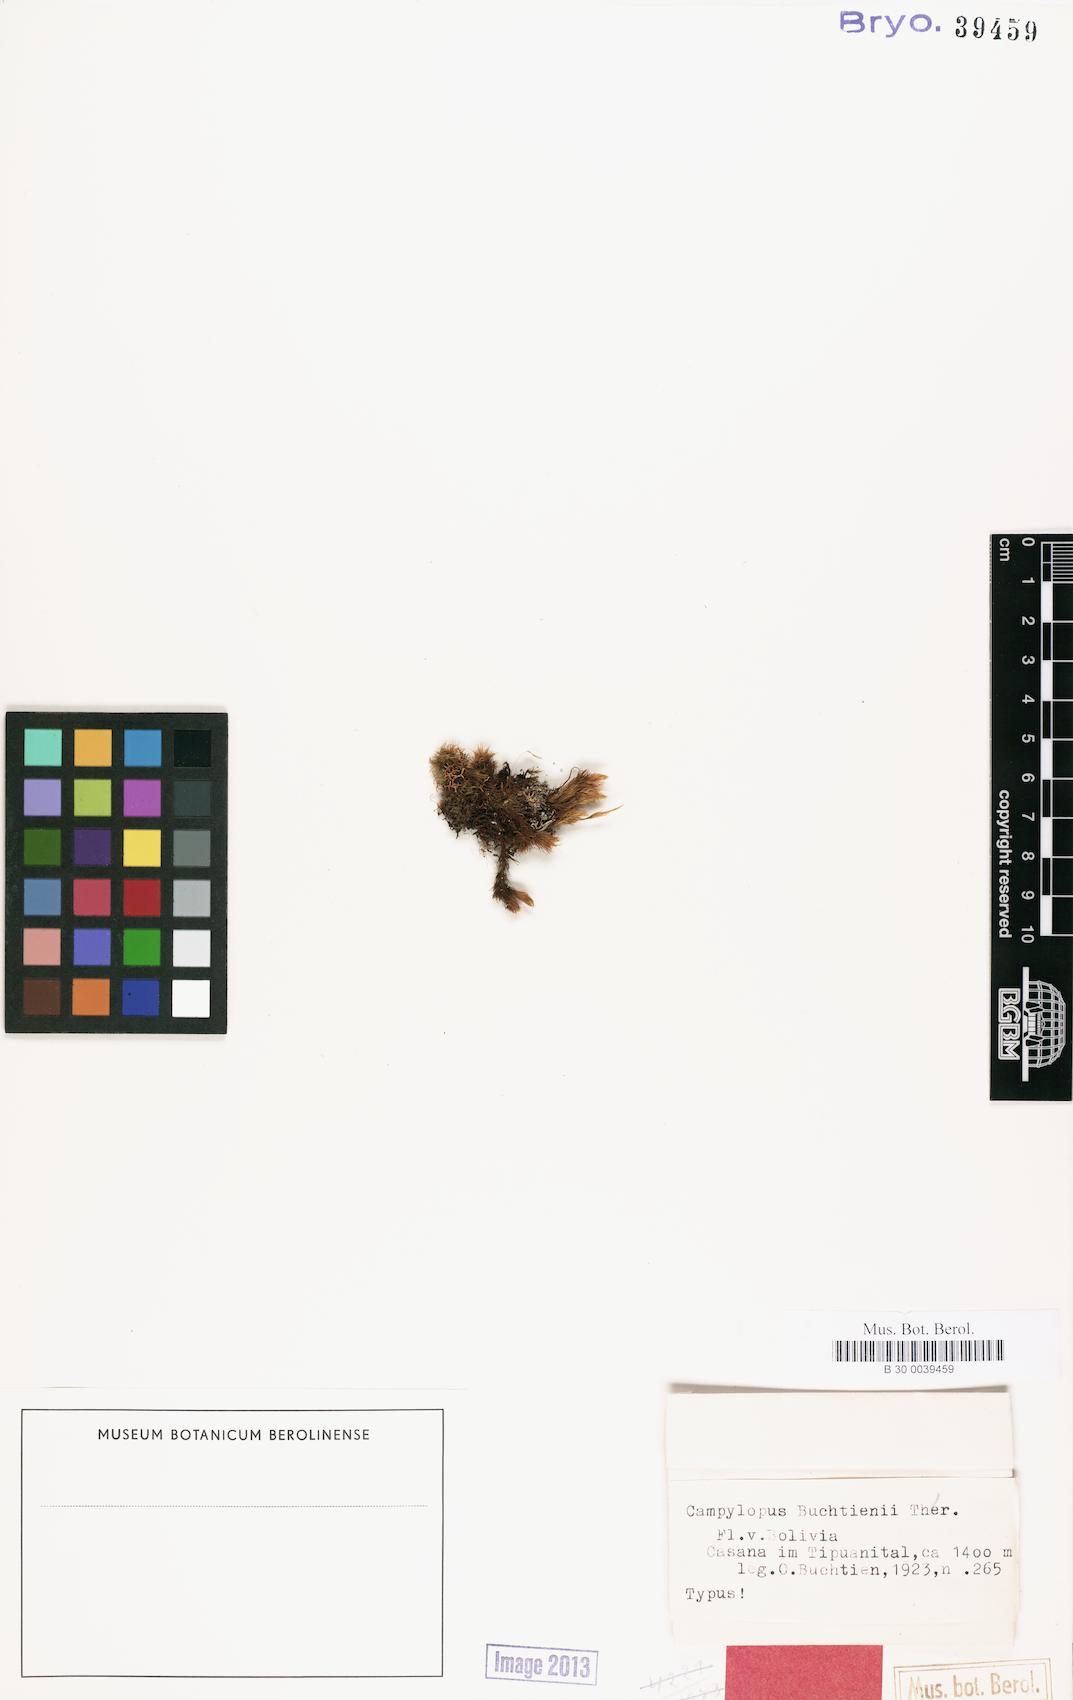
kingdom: Plantae
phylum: Bryophyta
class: Bryopsida
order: Dicranales
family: Leucobryaceae
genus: Campylopus
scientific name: Campylopus arctocarpus
